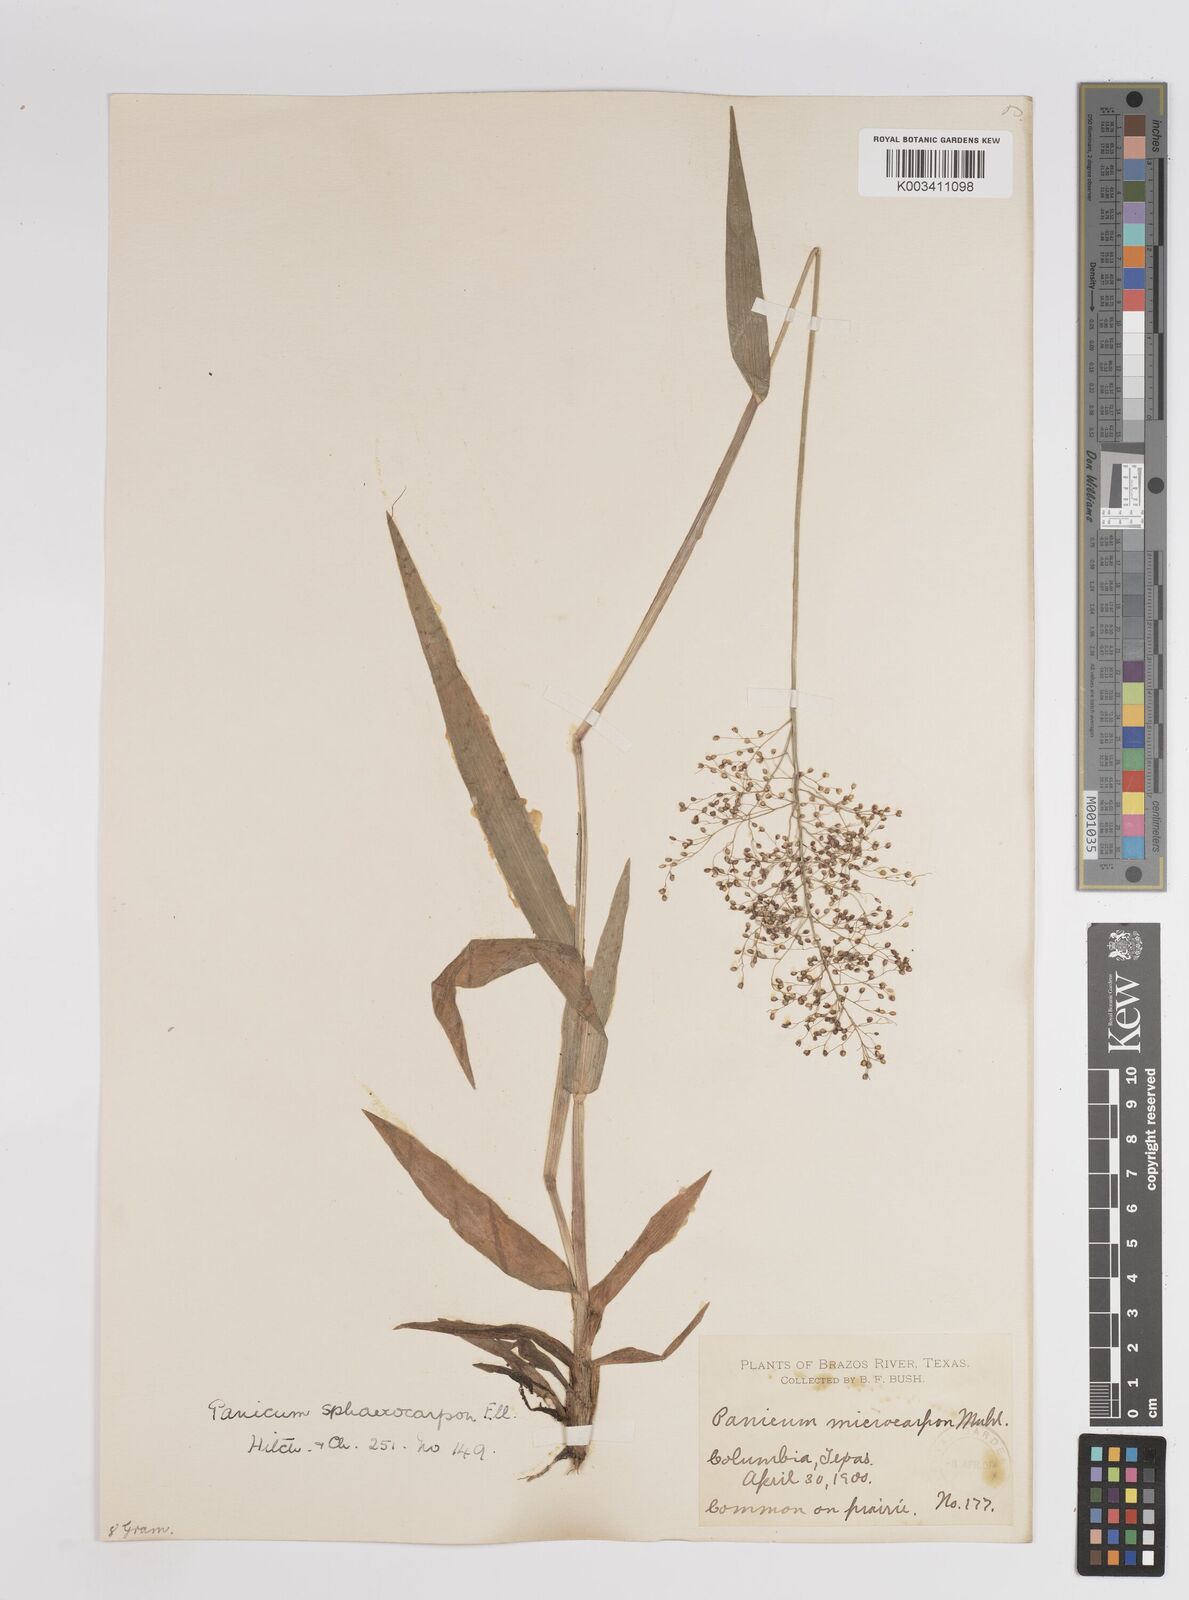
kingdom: Plantae
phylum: Tracheophyta
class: Liliopsida
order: Poales
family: Poaceae
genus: Dichanthelium
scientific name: Dichanthelium sphaerocarpon
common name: Round-fruited panicgrass
